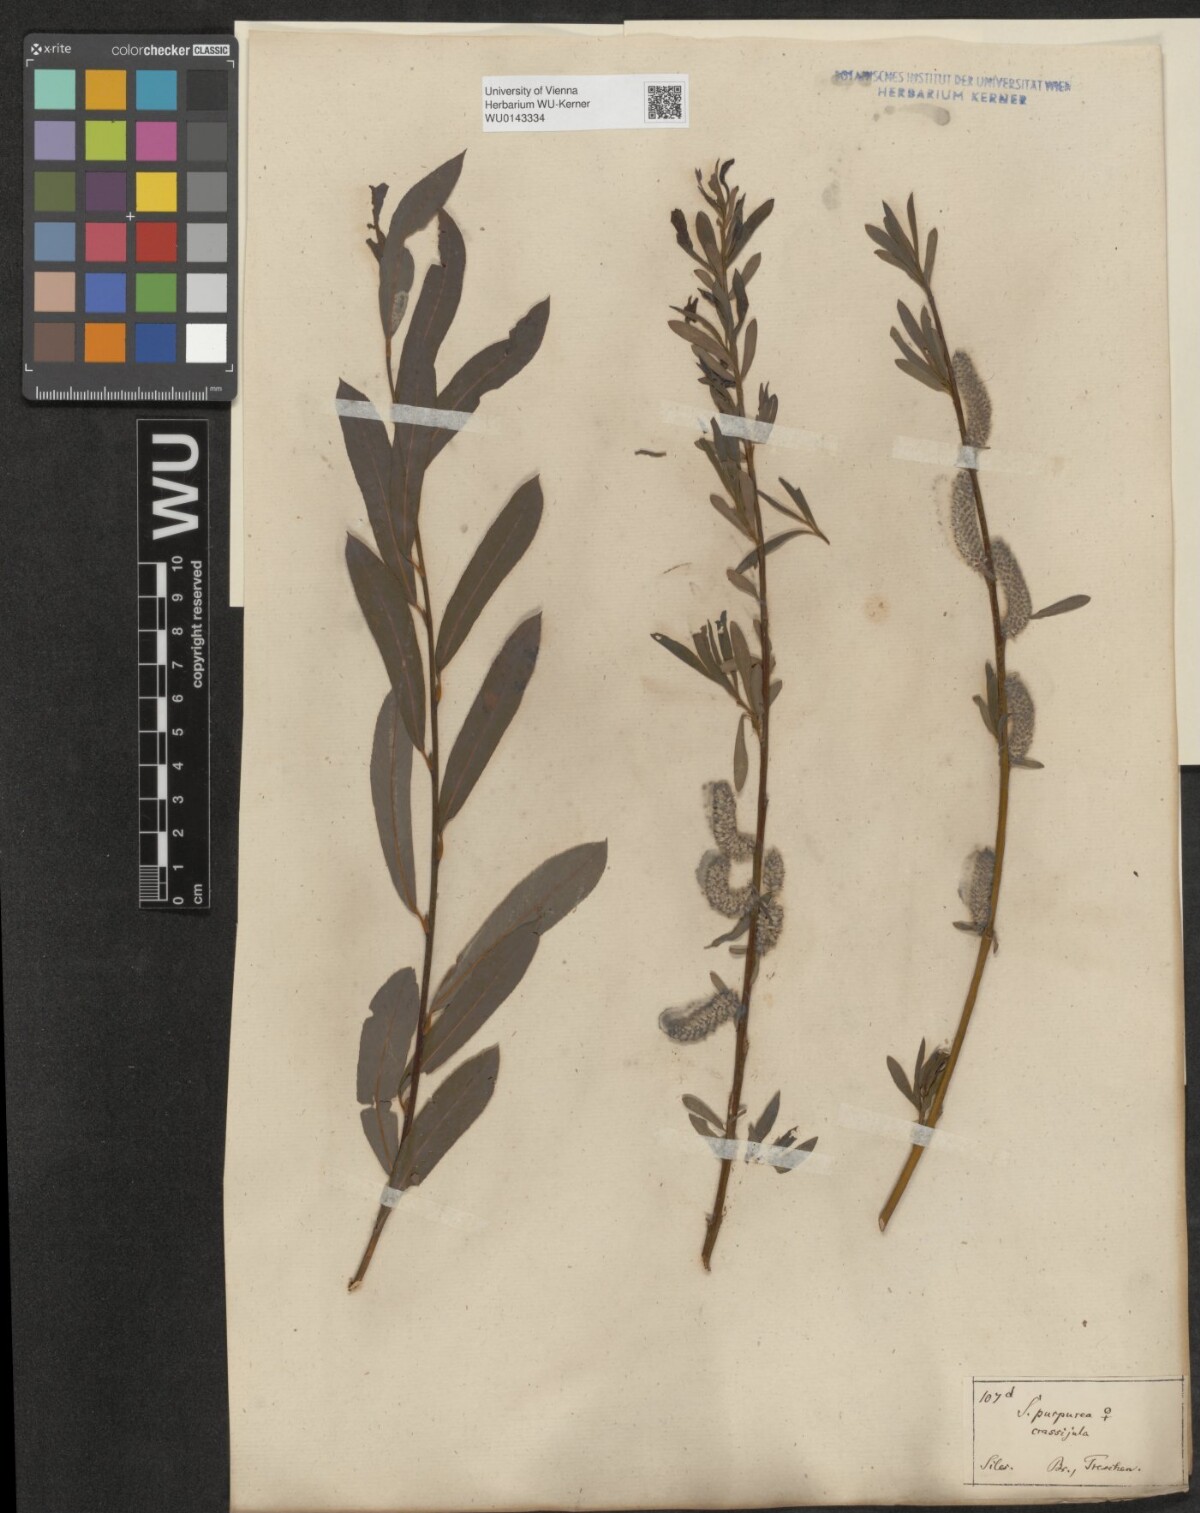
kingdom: Plantae
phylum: Tracheophyta
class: Magnoliopsida
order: Malpighiales
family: Salicaceae
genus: Salix
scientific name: Salix purpurea
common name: Purple willow
